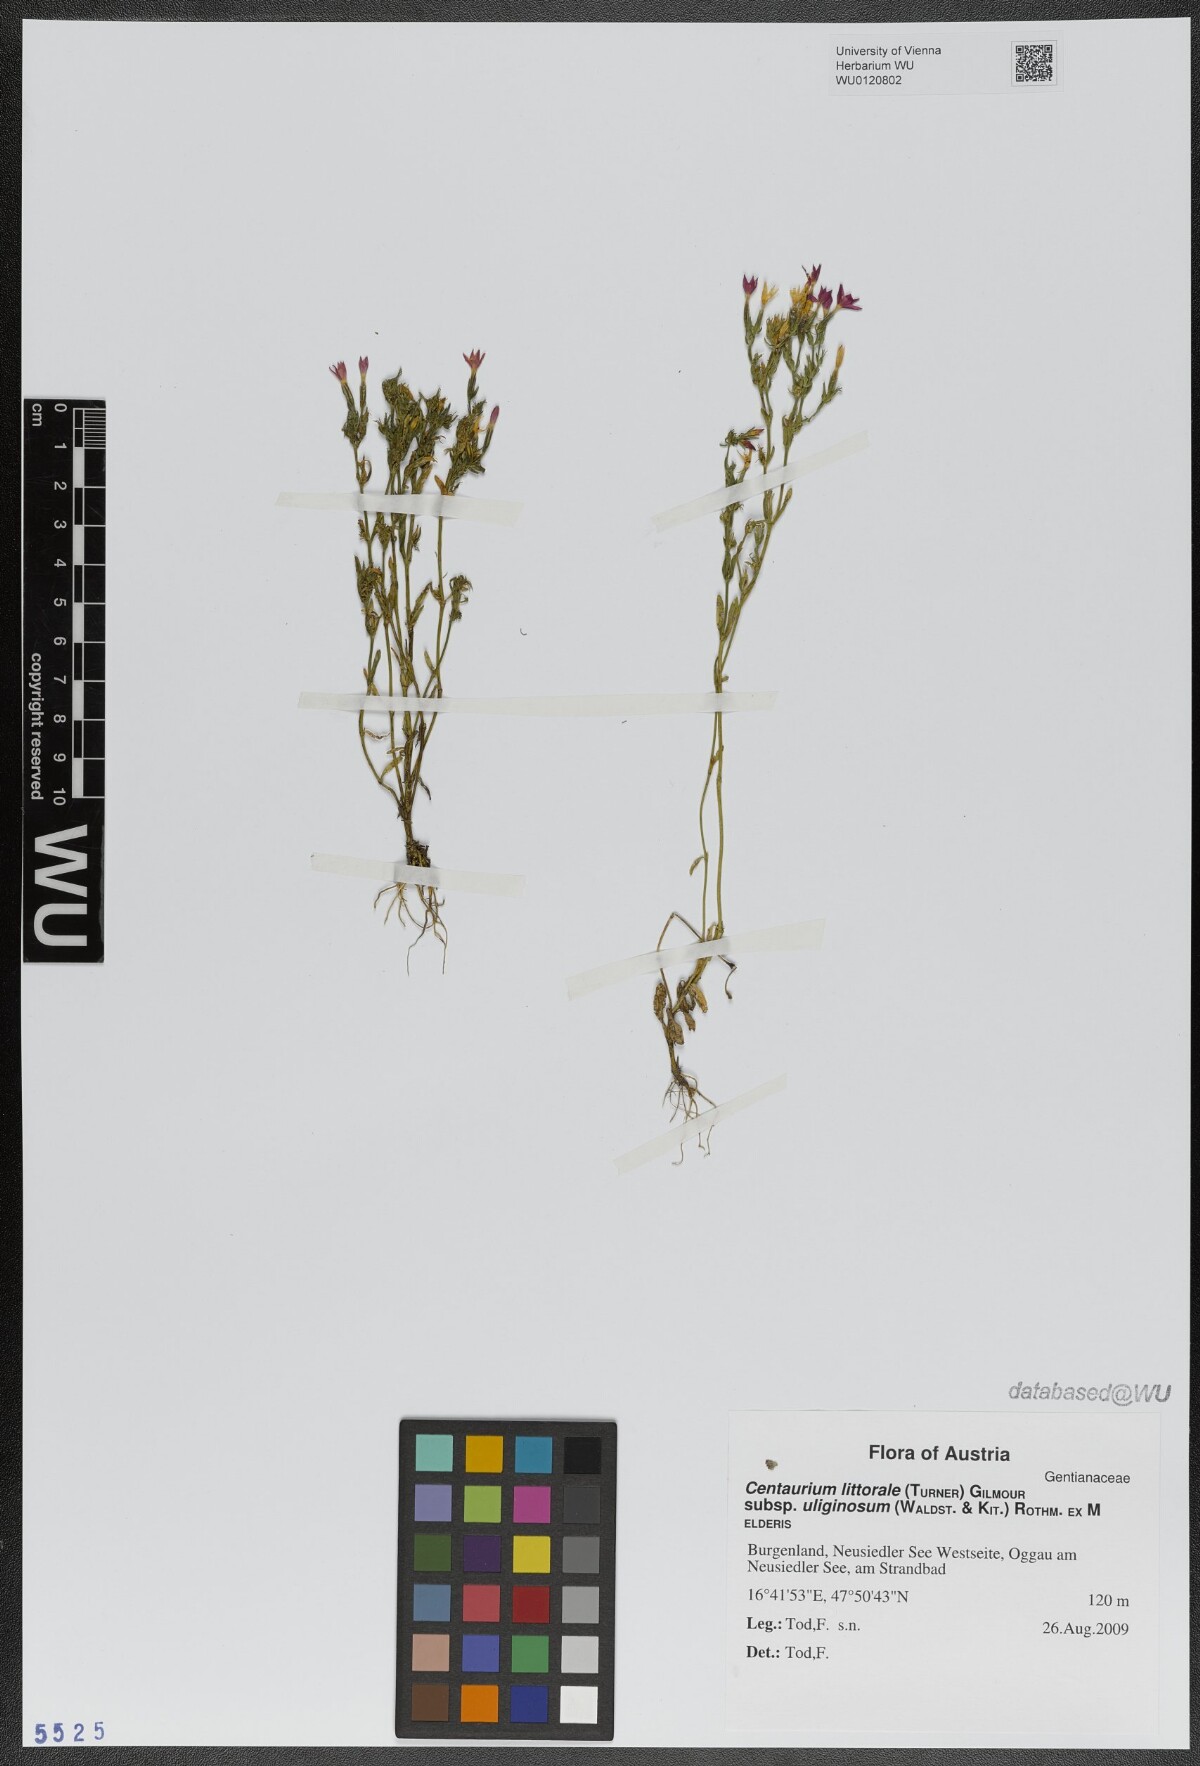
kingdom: Plantae
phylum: Tracheophyta
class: Magnoliopsida
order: Gentianales
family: Gentianaceae
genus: Centaurium
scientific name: Centaurium littorale
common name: Seaside centaury
